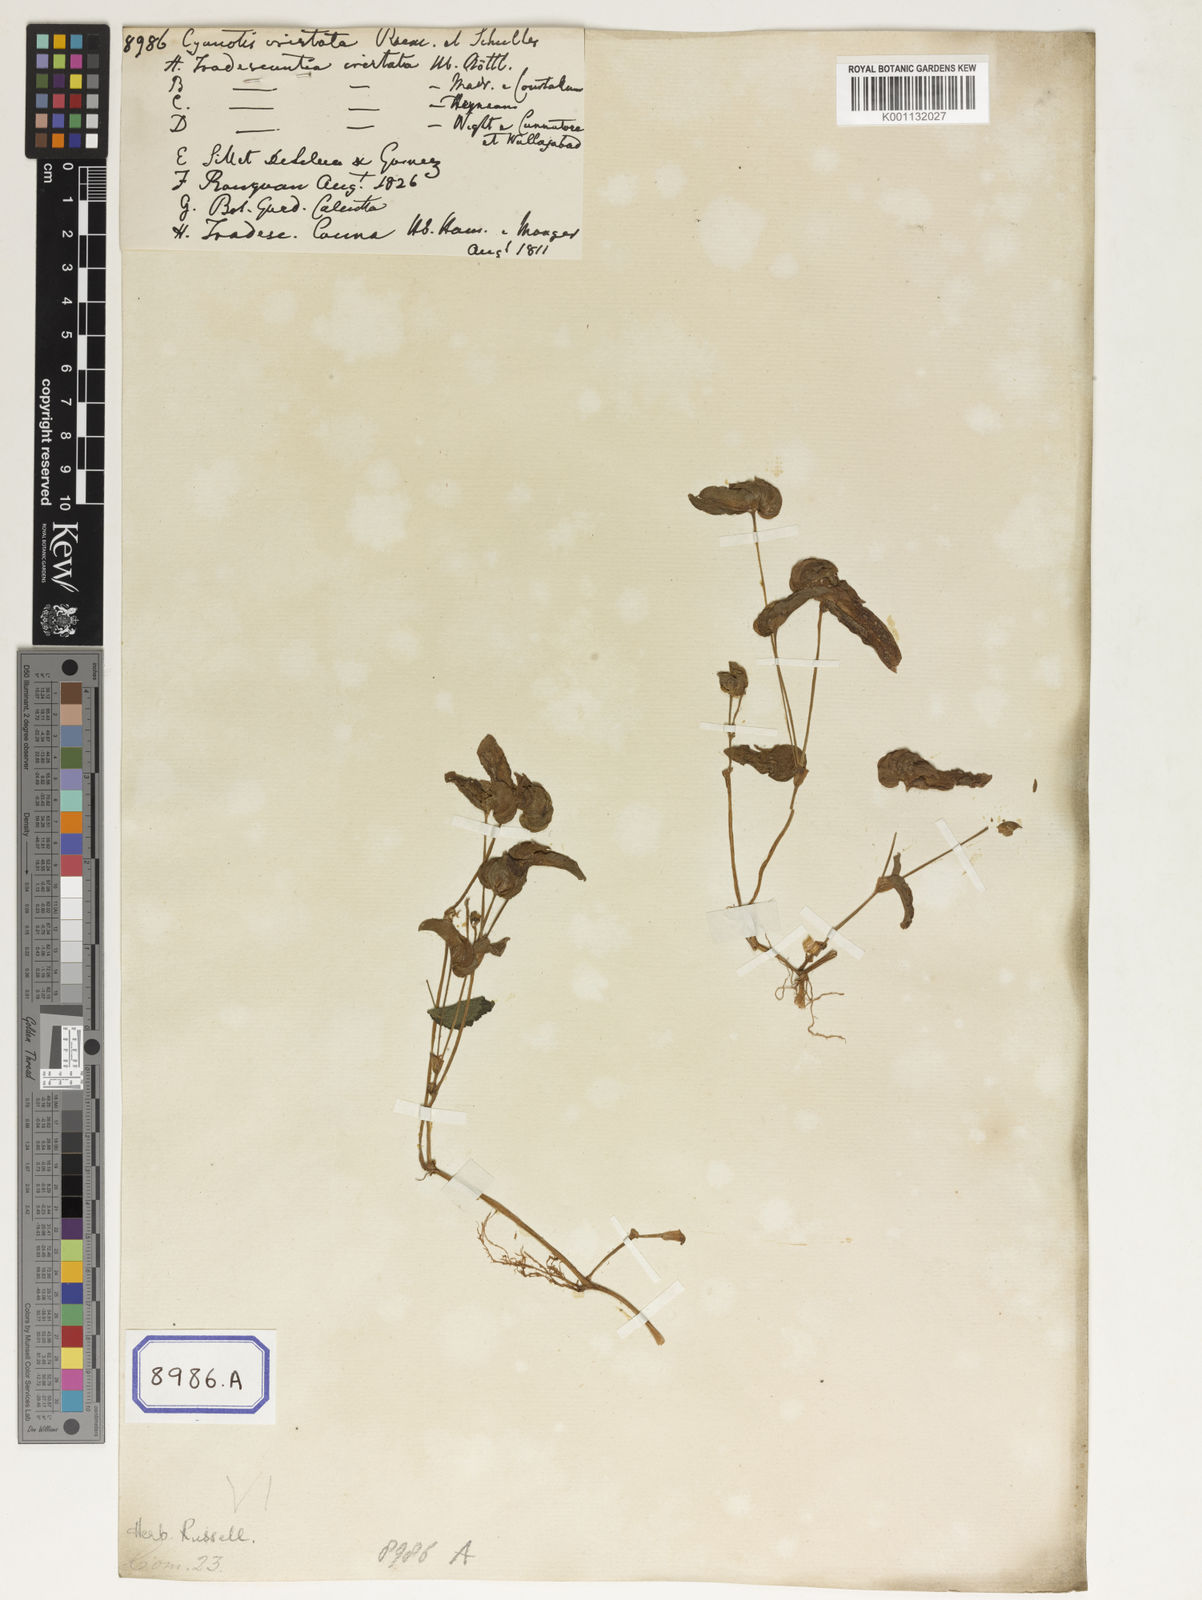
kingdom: Plantae
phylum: Tracheophyta
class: Liliopsida
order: Commelinales
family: Commelinaceae
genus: Cyanotis
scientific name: Cyanotis cristata
